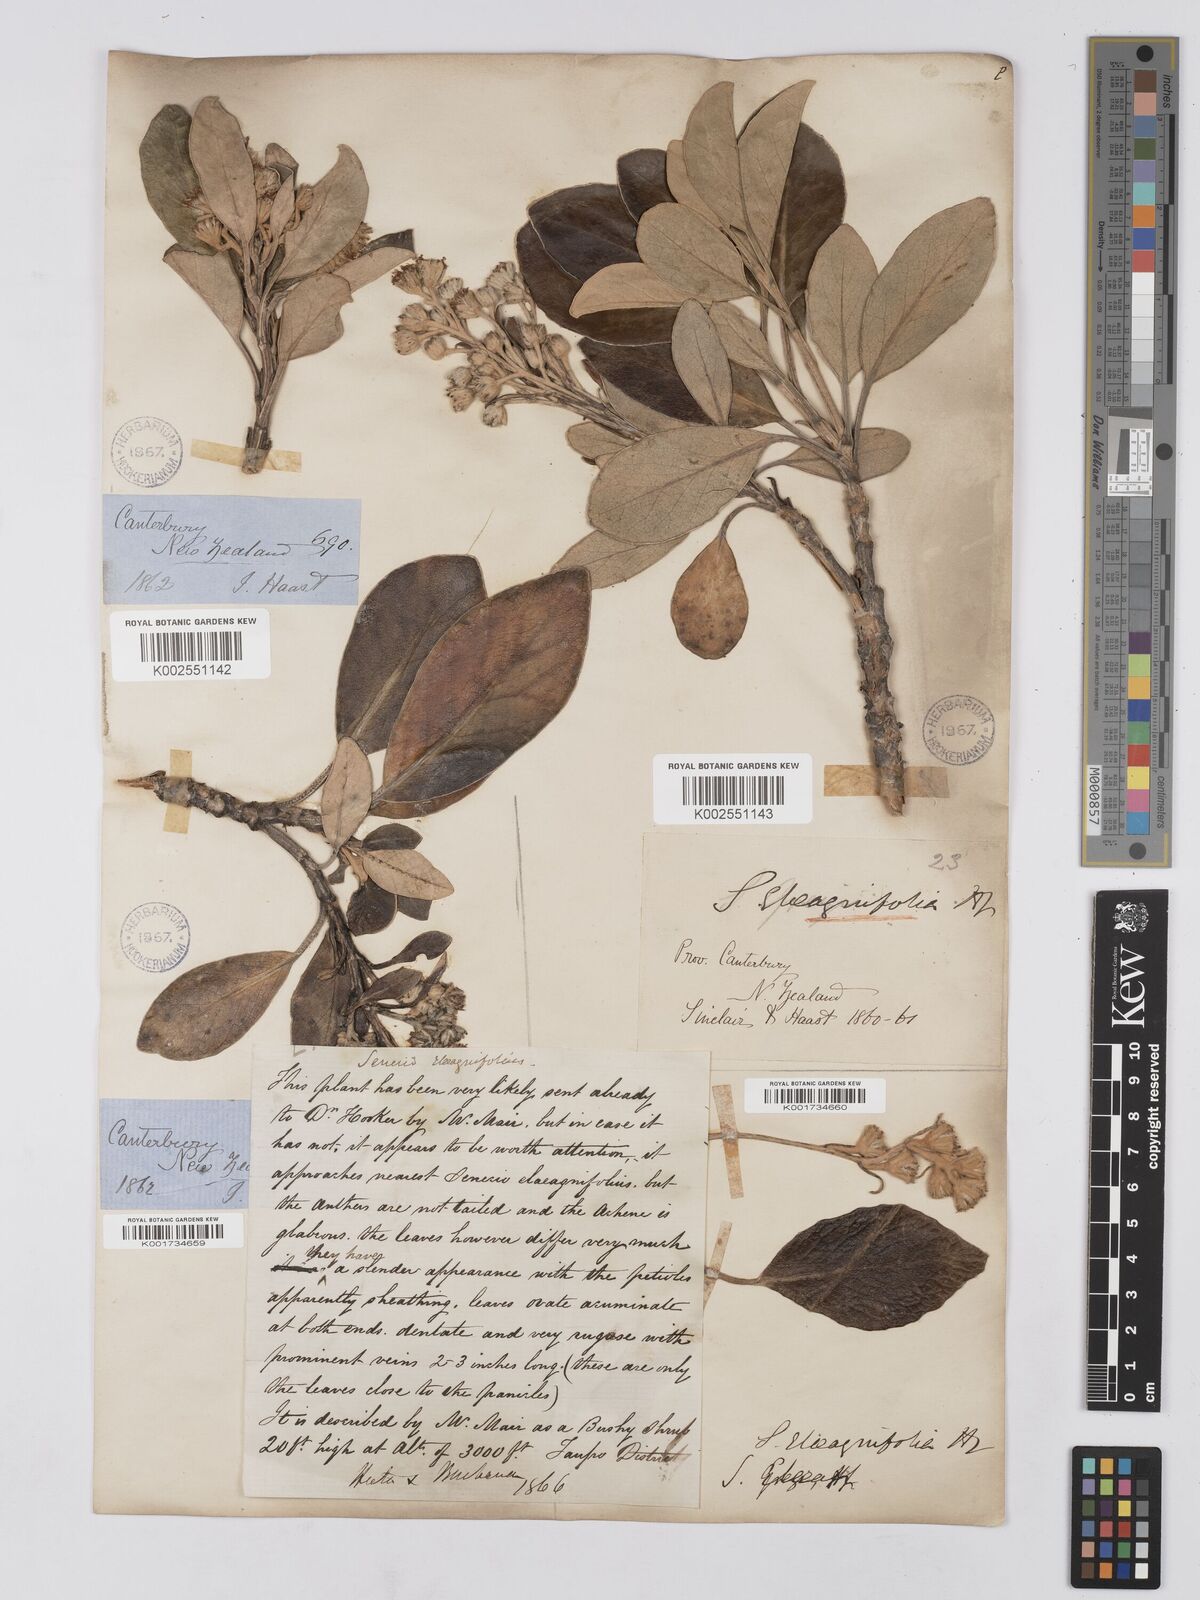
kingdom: Plantae
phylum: Tracheophyta
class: Magnoliopsida
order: Asterales
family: Asteraceae
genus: Brachyglottis
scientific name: Brachyglottis buchananii
